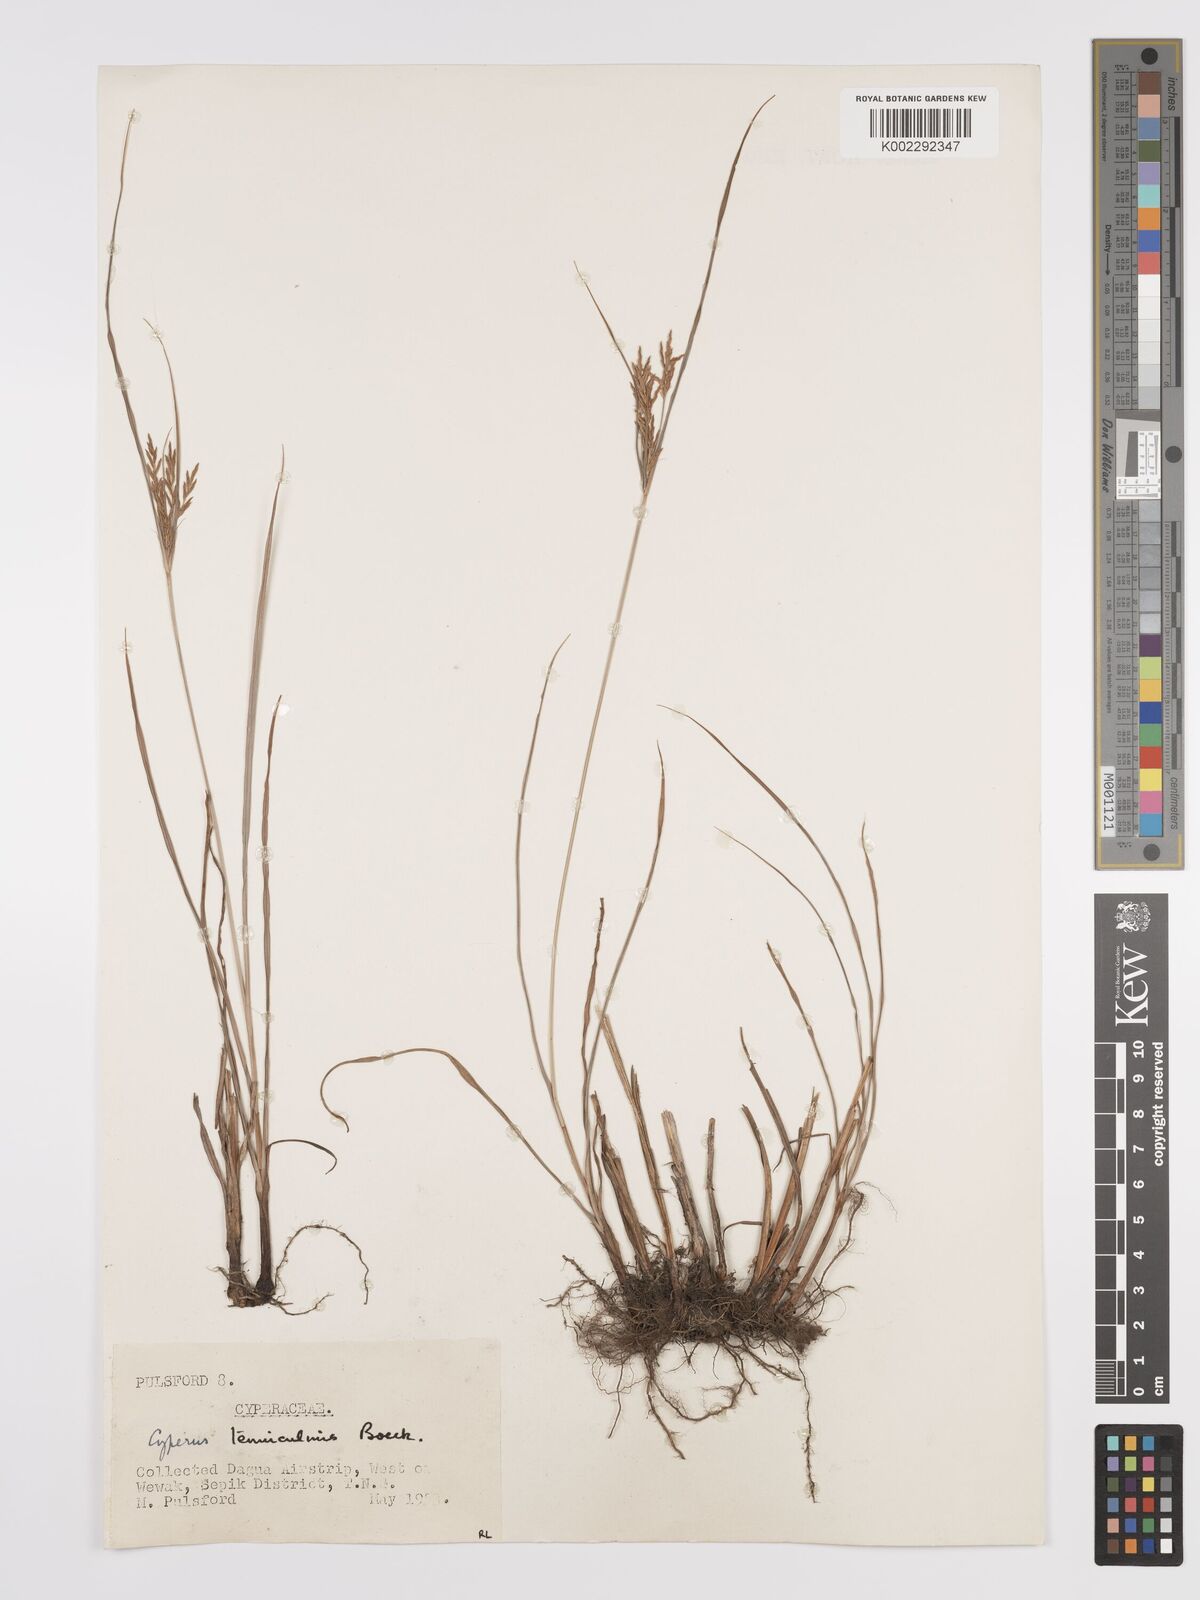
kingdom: Plantae
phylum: Tracheophyta
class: Liliopsida
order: Poales
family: Cyperaceae
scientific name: Cyperaceae
